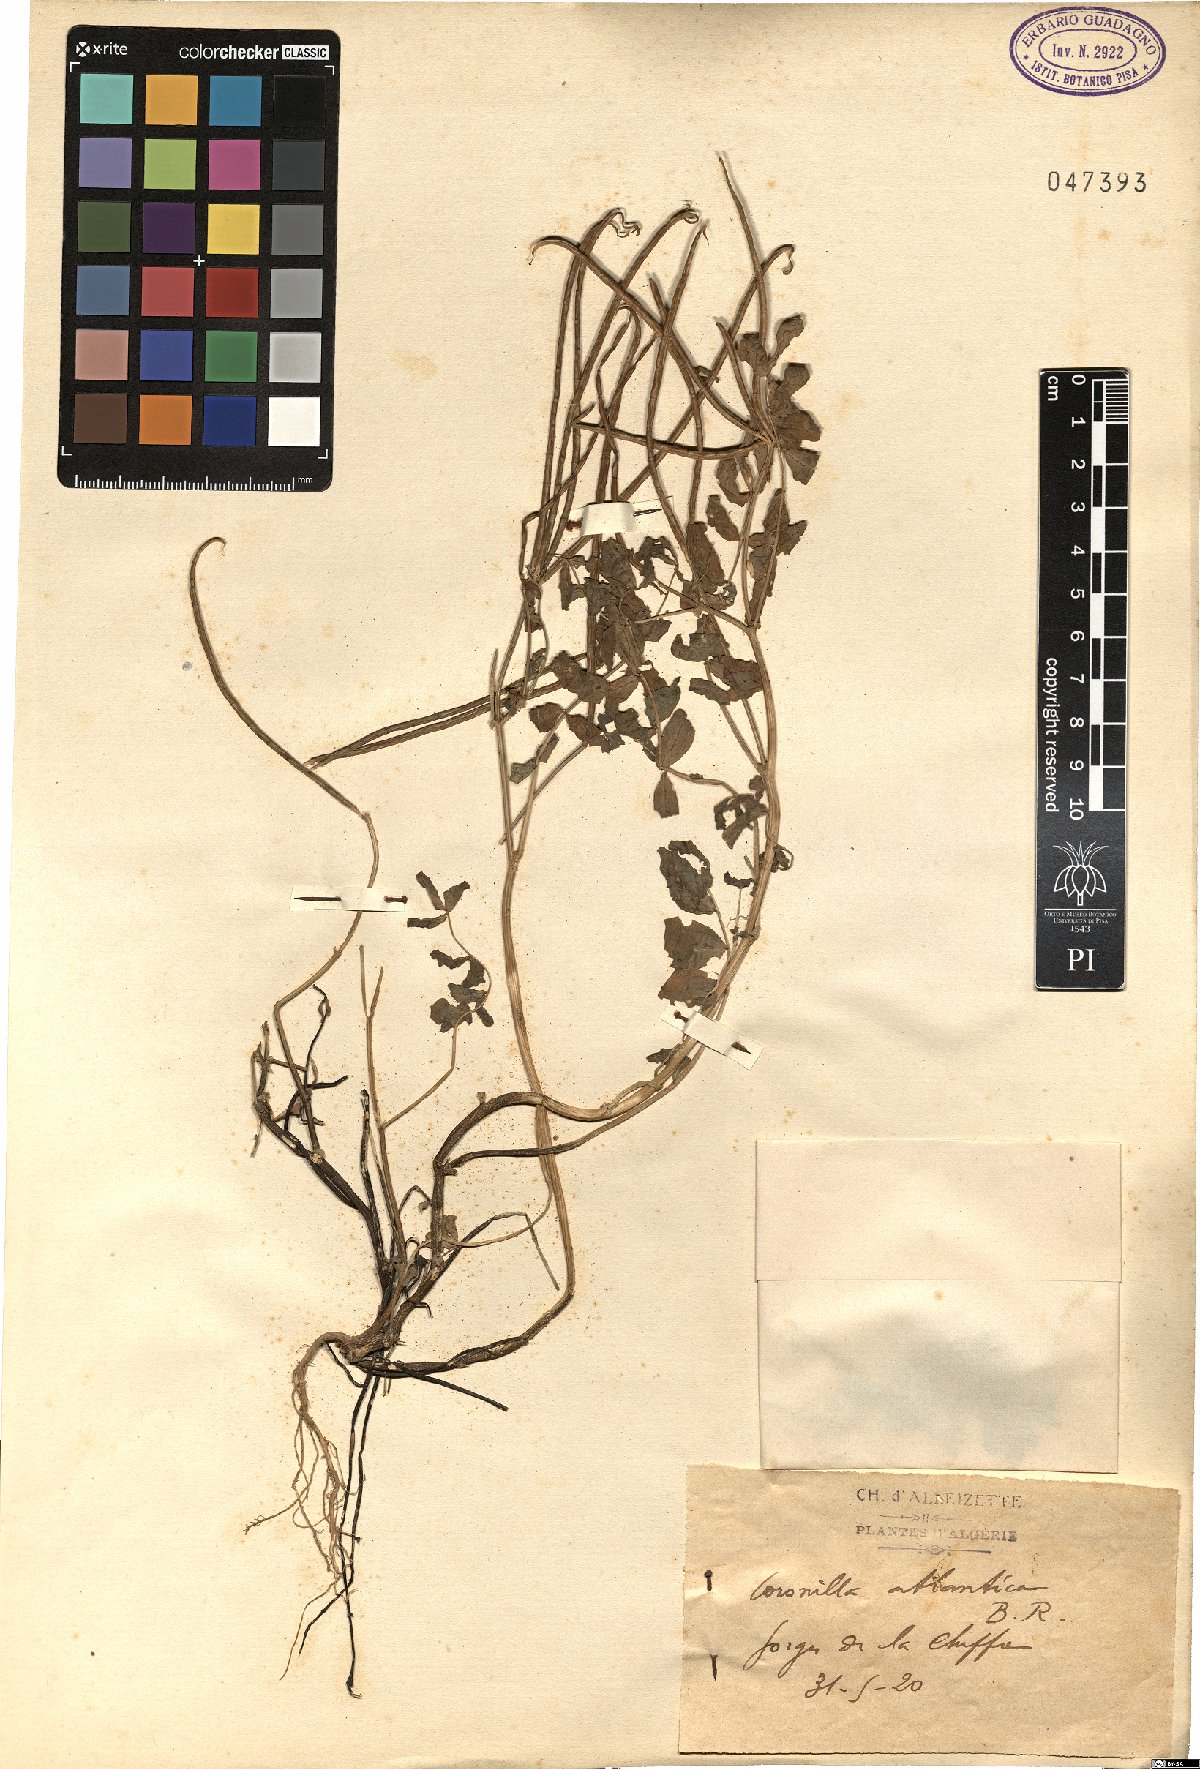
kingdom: Plantae
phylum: Tracheophyta
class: Magnoliopsida
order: Fabales
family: Fabaceae
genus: Coronilla
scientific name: Coronilla atlantica
